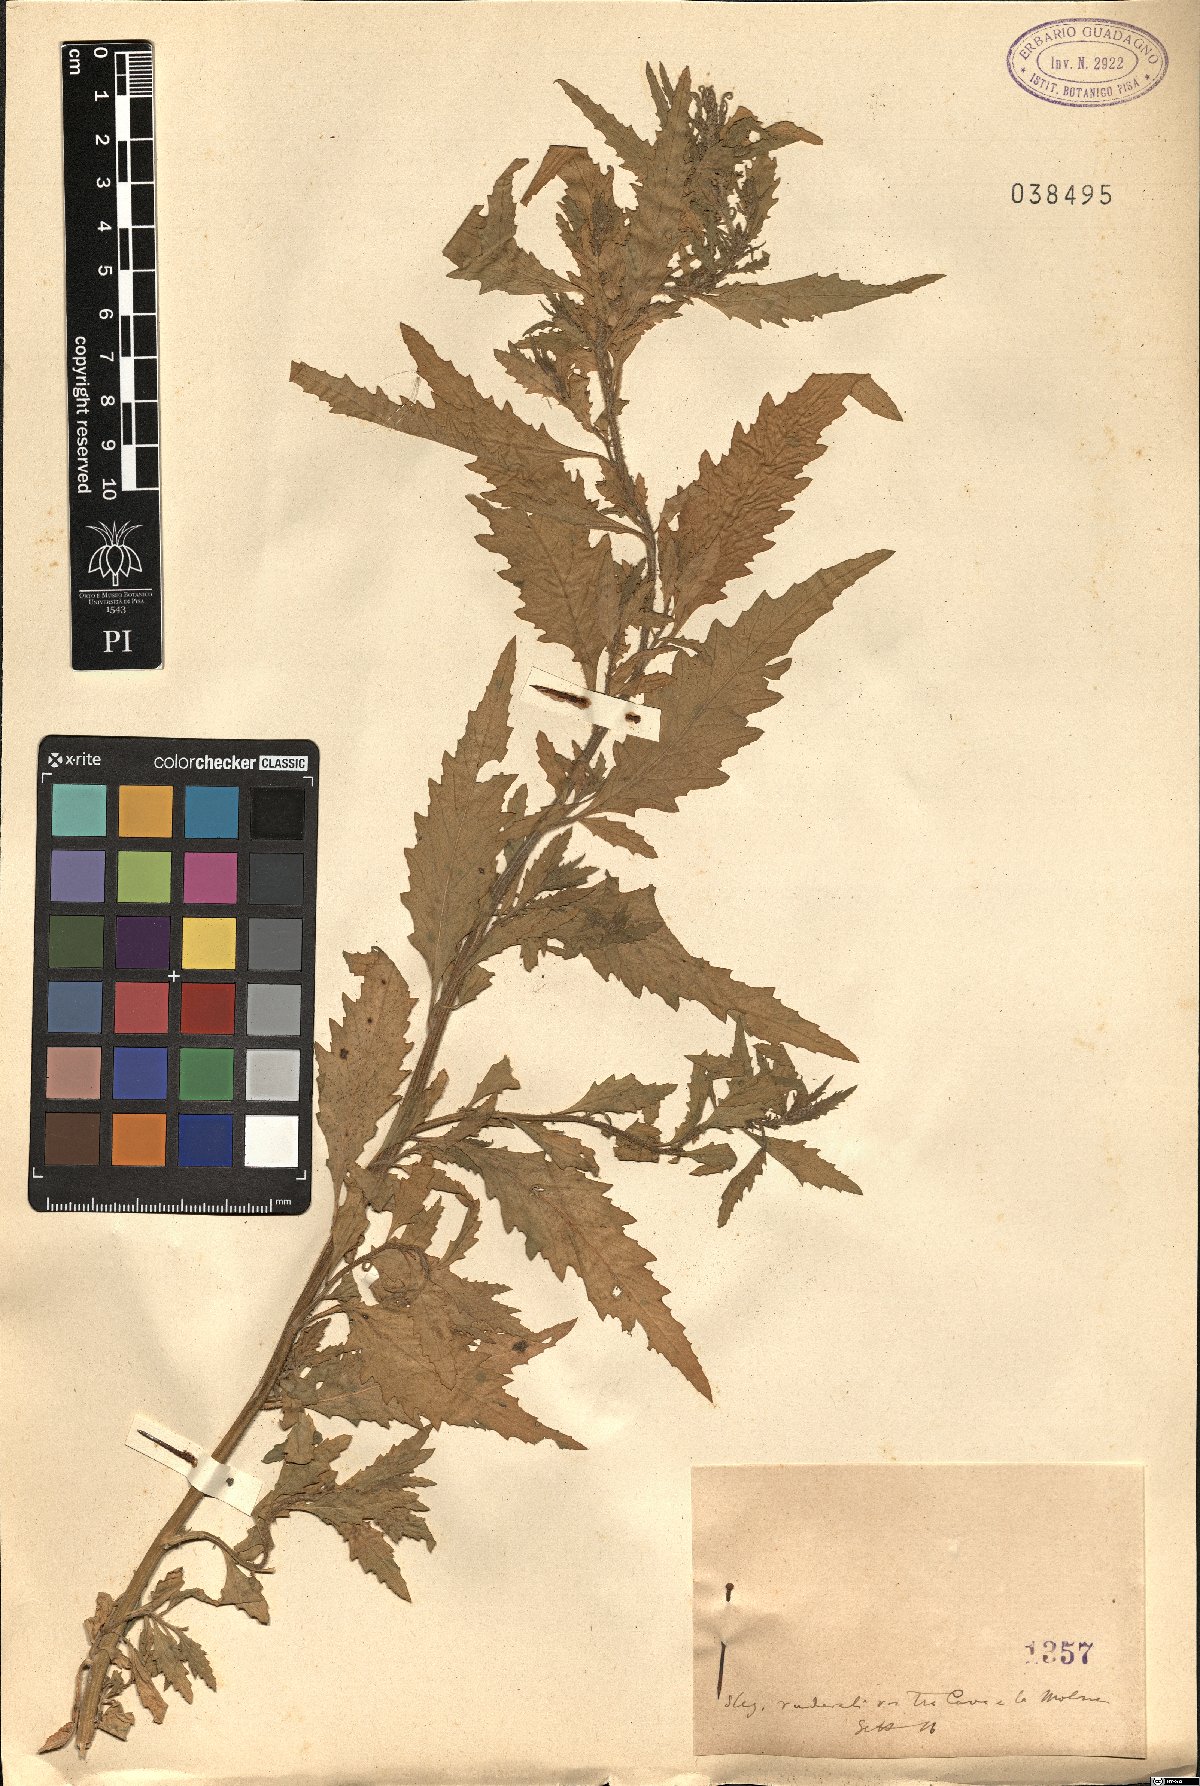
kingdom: Plantae
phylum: Tracheophyta
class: Magnoliopsida
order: Caryophyllales
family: Amaranthaceae
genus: Dysphania
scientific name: Dysphania
